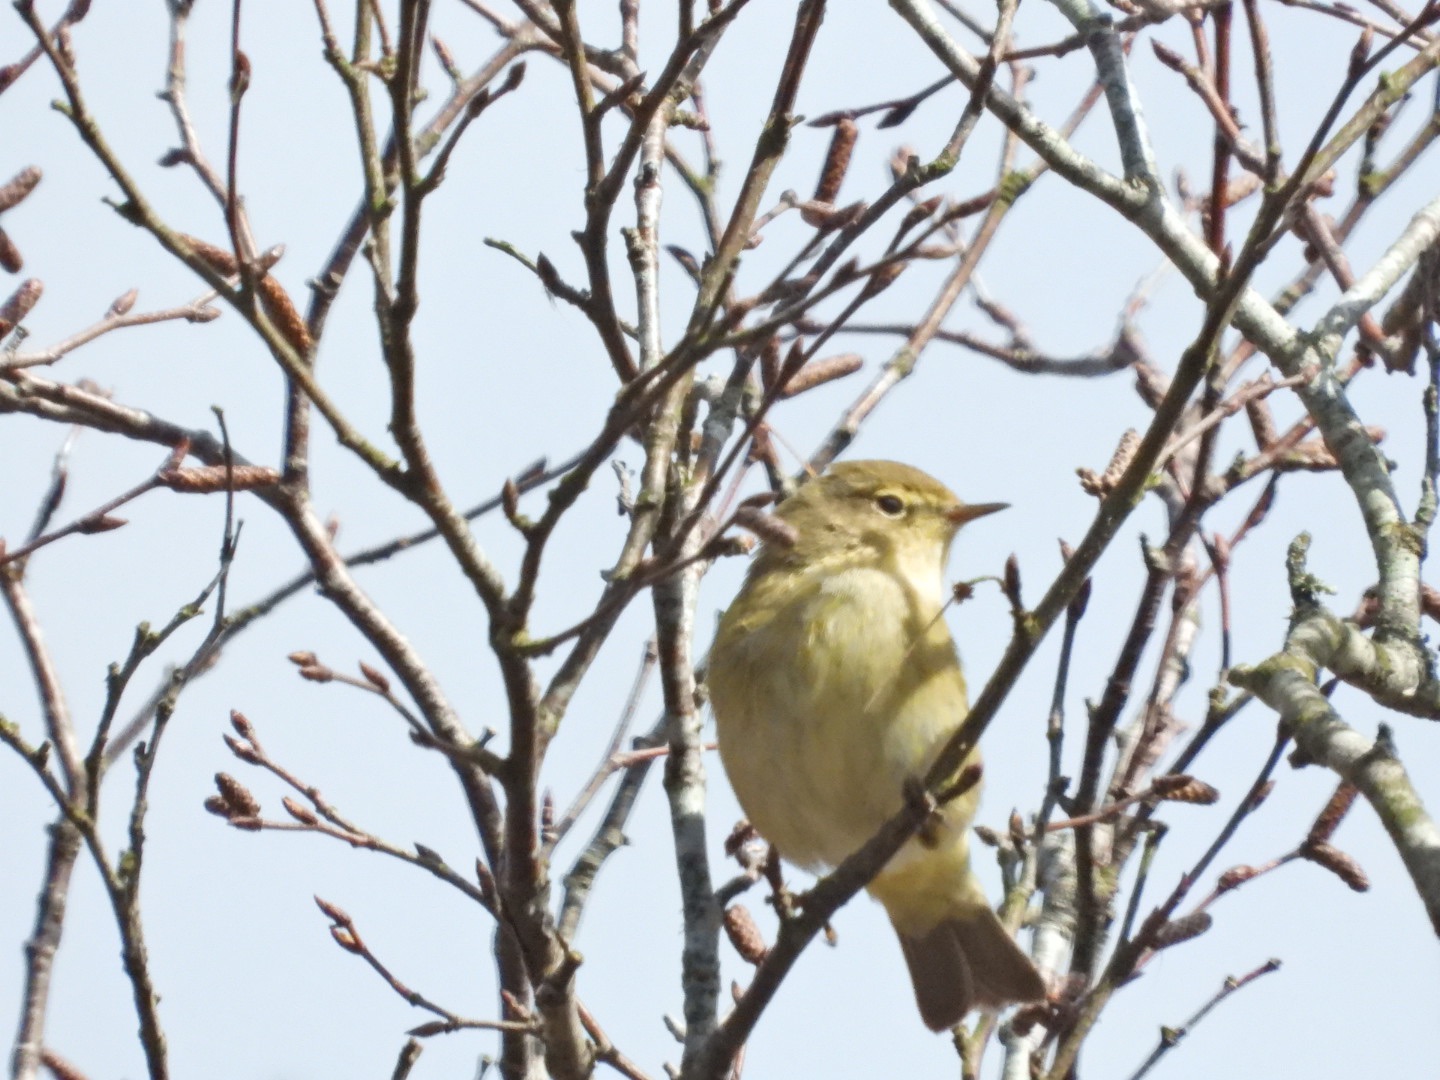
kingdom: Animalia
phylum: Chordata
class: Aves
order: Passeriformes
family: Phylloscopidae
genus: Phylloscopus
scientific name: Phylloscopus collybita
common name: Gransanger
